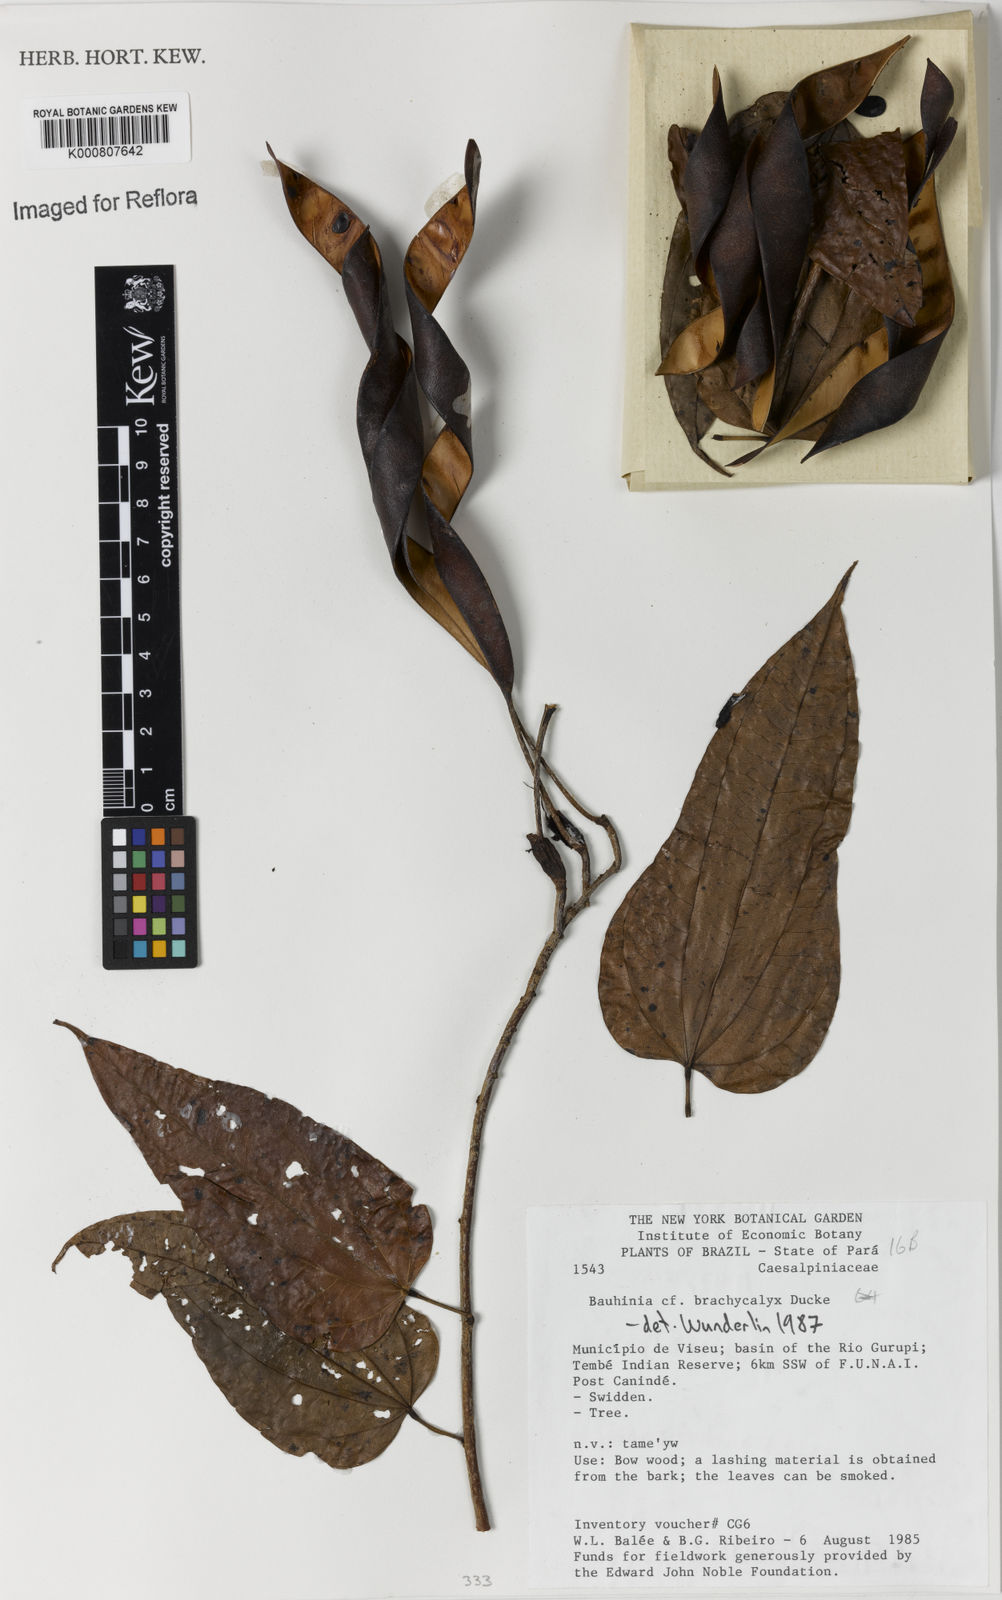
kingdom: Plantae
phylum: Tracheophyta
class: Magnoliopsida
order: Fabales
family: Fabaceae
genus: Bauhinia
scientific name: Bauhinia brachycalyx
